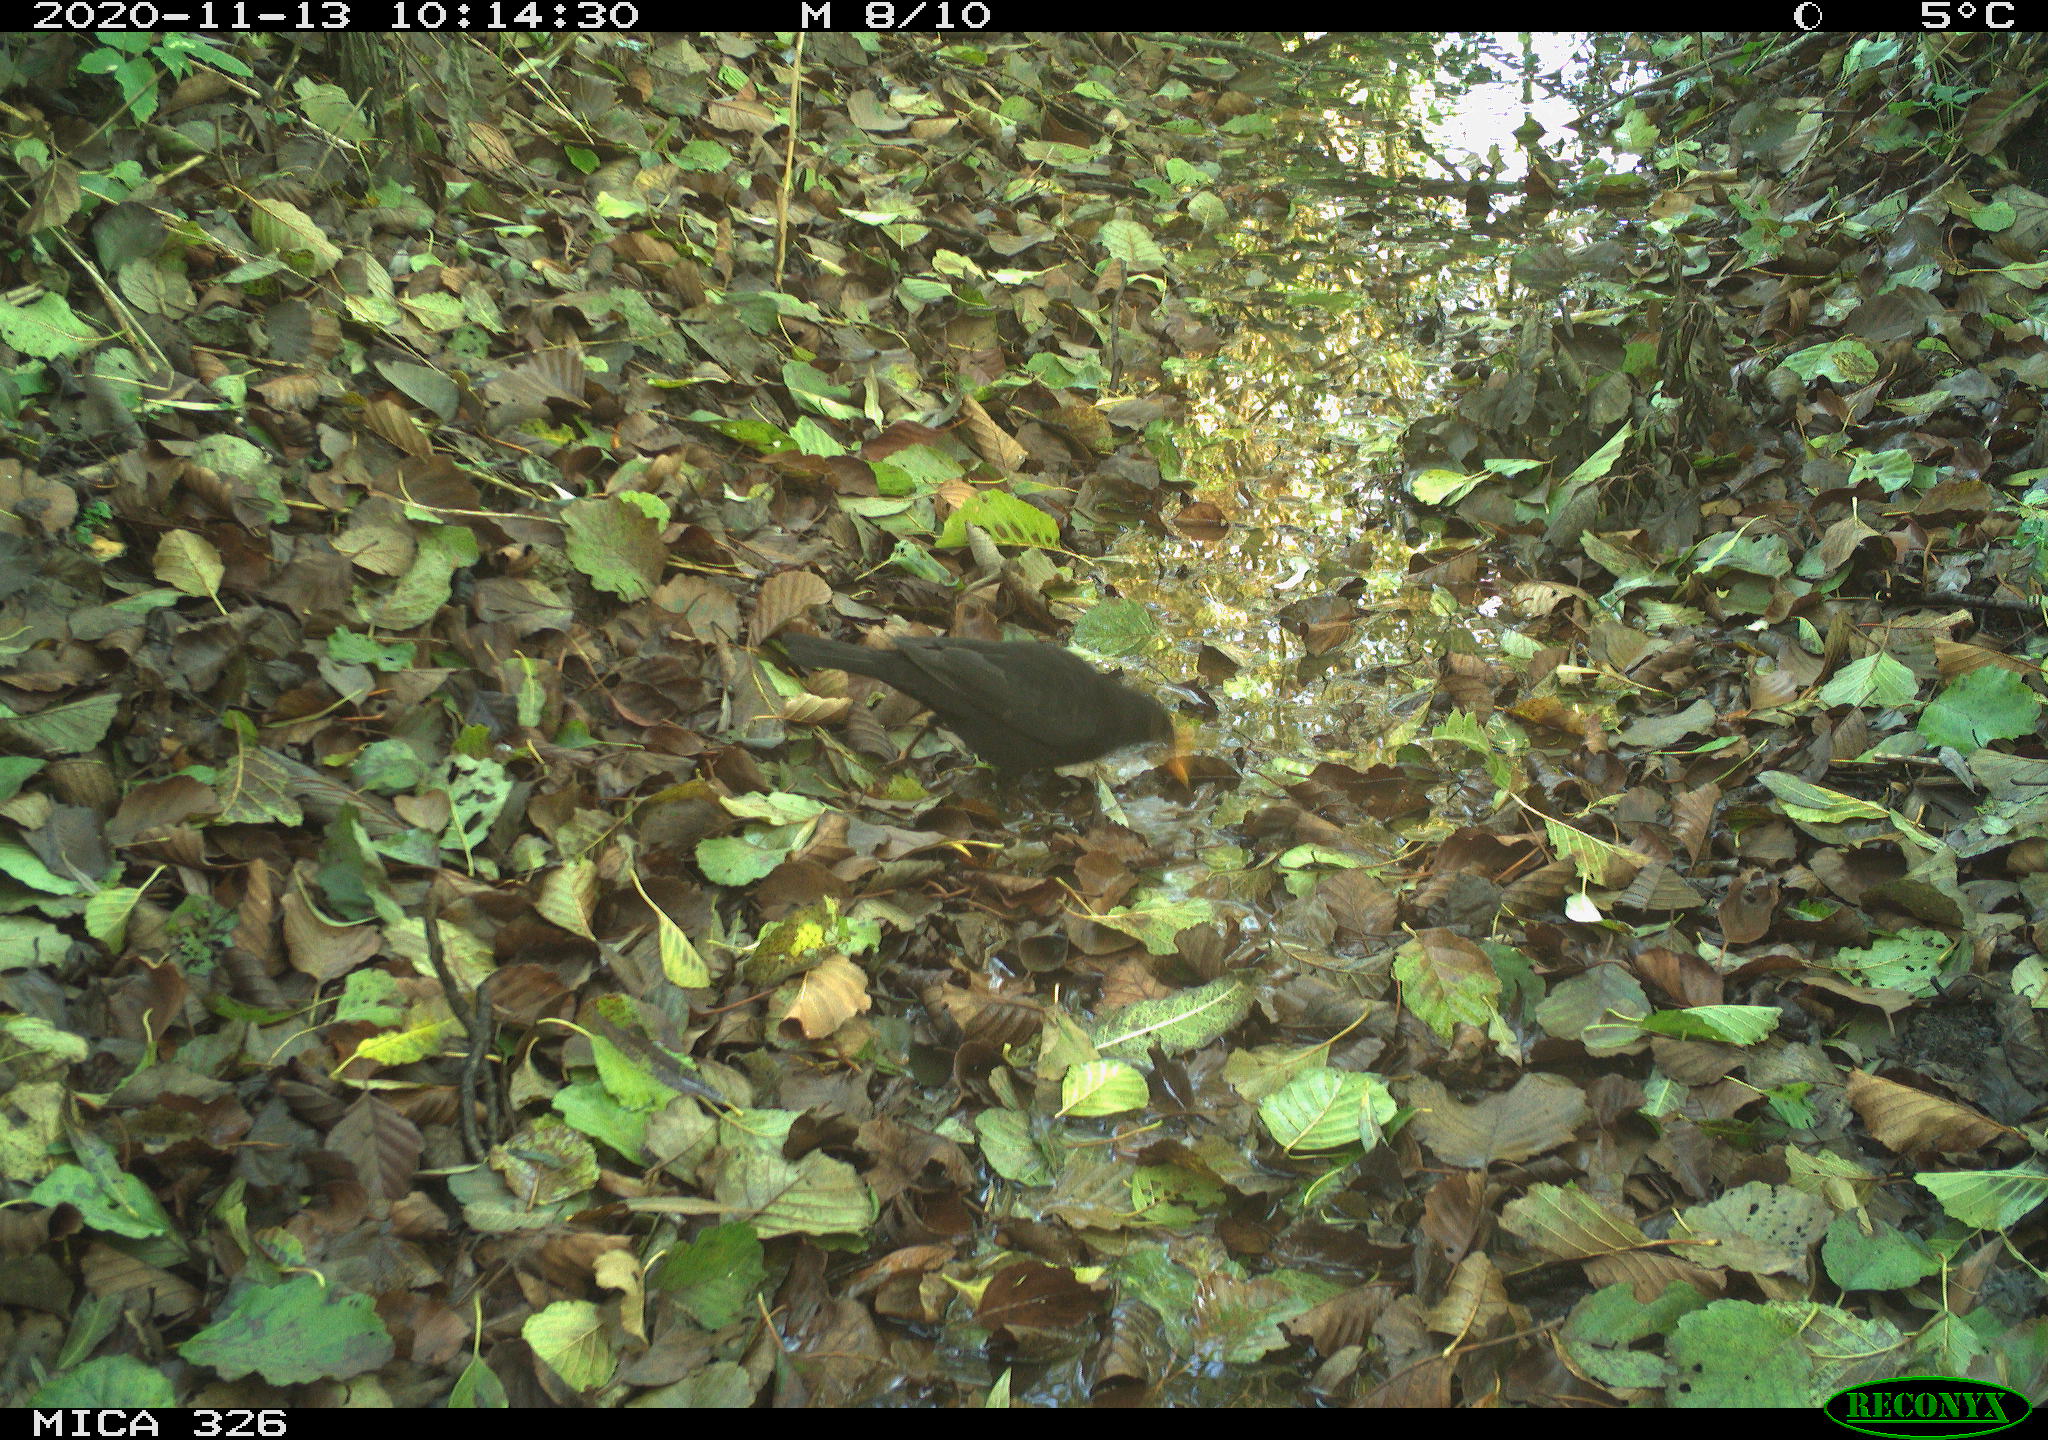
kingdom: Animalia
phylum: Chordata
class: Aves
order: Passeriformes
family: Turdidae
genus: Turdus
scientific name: Turdus merula
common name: Common blackbird
